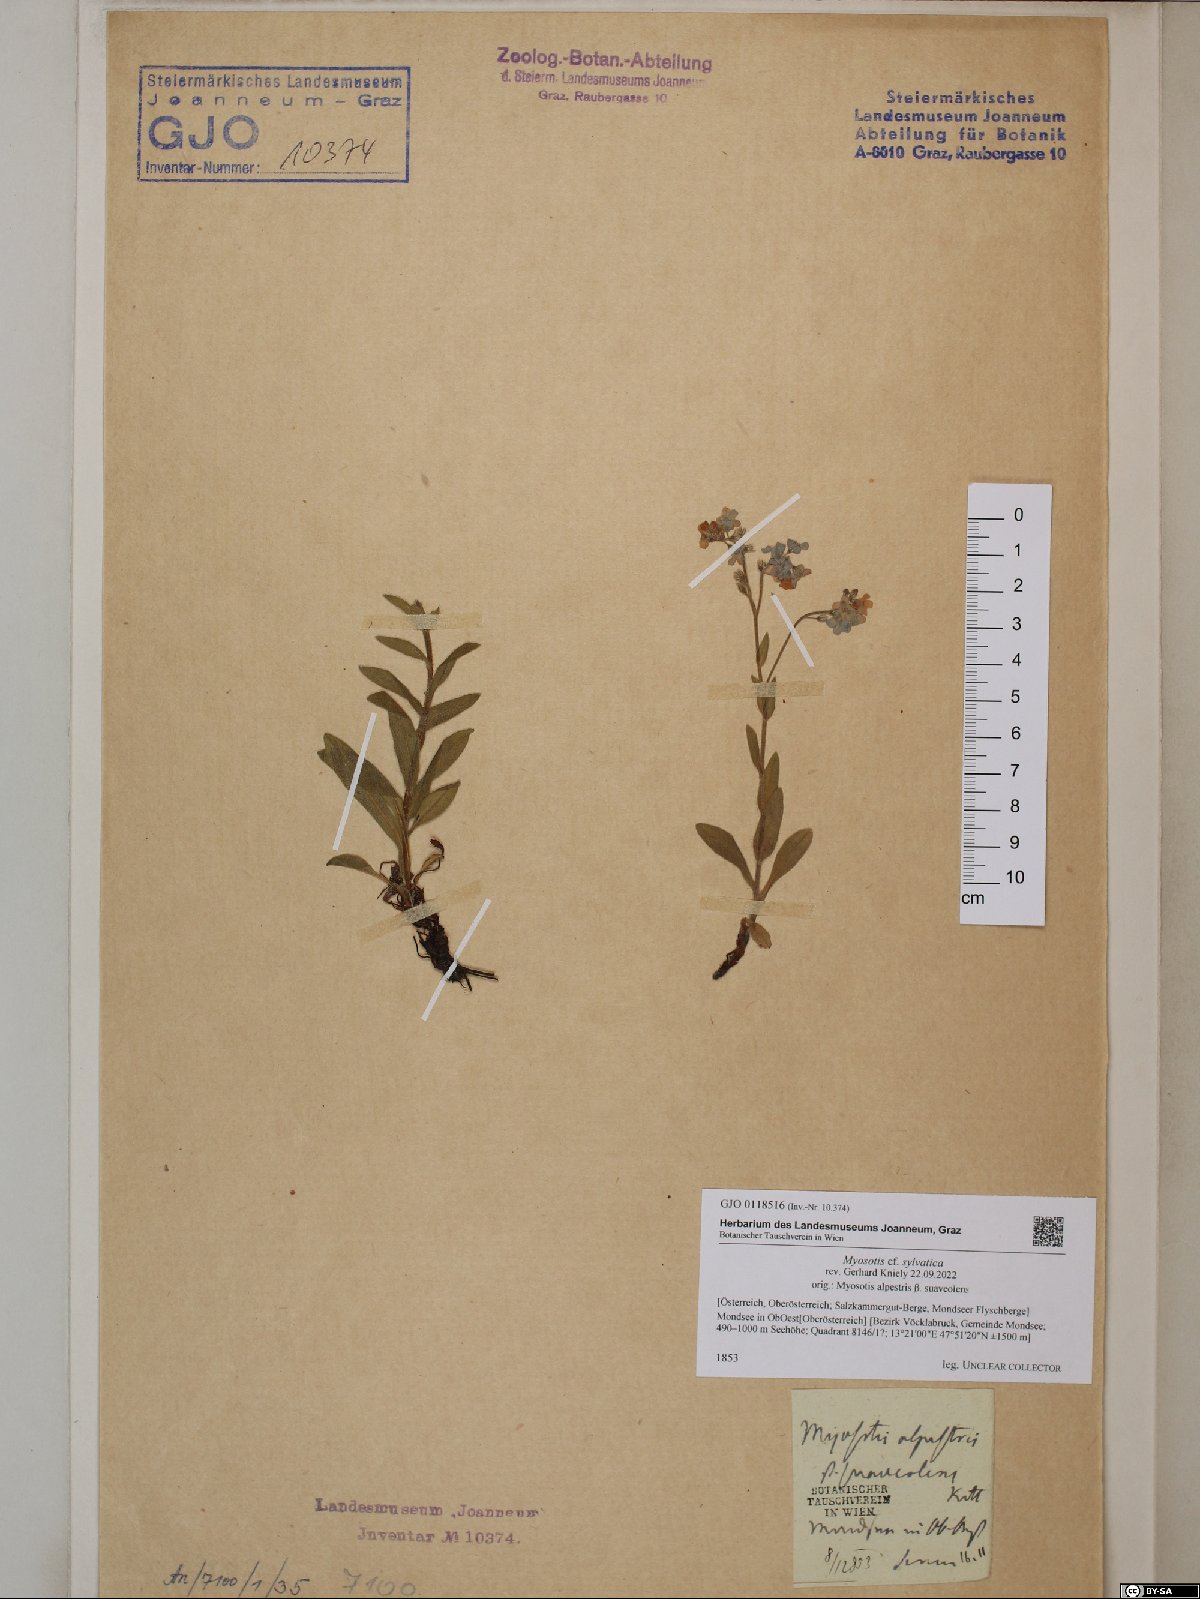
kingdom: Plantae
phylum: Tracheophyta
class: Magnoliopsida
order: Boraginales
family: Boraginaceae
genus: Myosotis
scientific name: Myosotis sylvatica
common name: Wood forget-me-not
